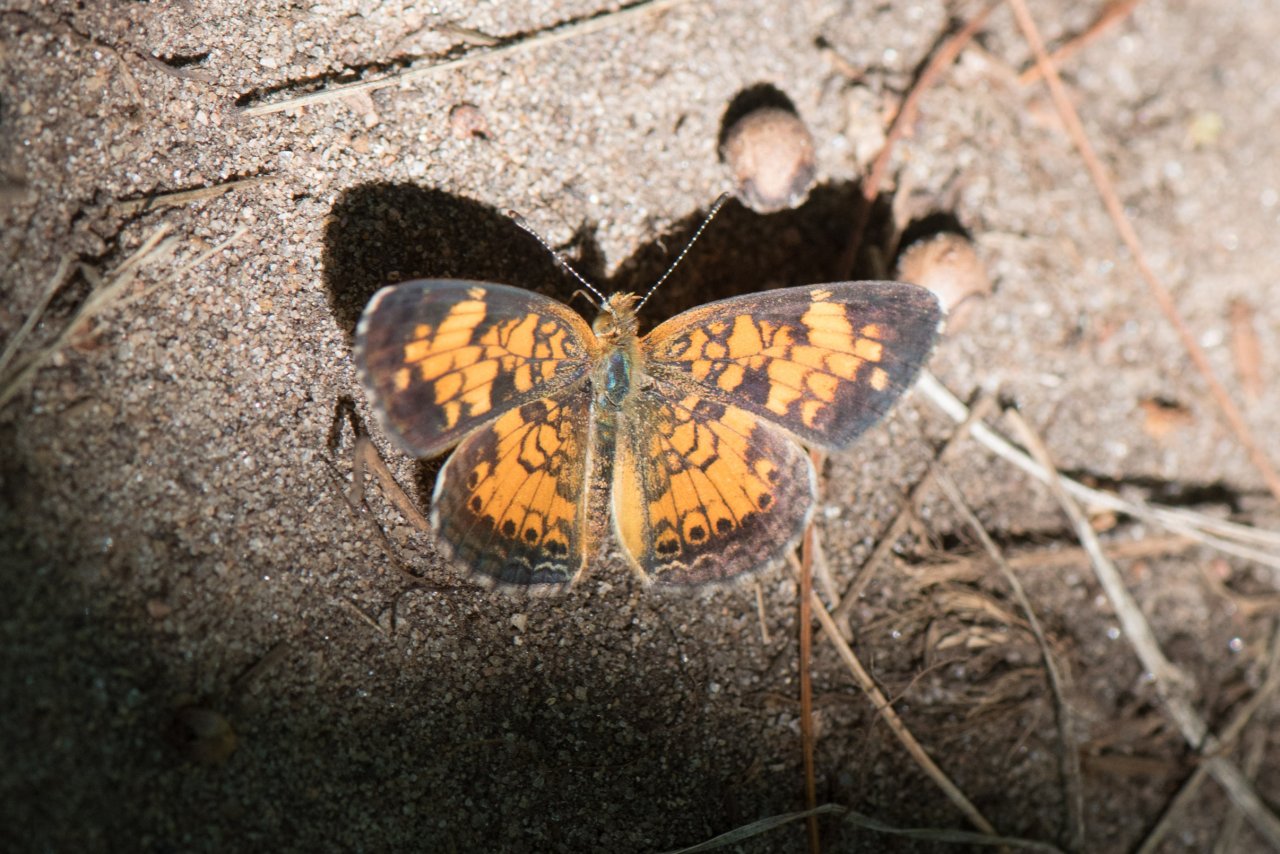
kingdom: Animalia
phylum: Arthropoda
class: Insecta
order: Lepidoptera
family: Nymphalidae
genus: Phyciodes
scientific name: Phyciodes tharos
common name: Pearl Crescent
